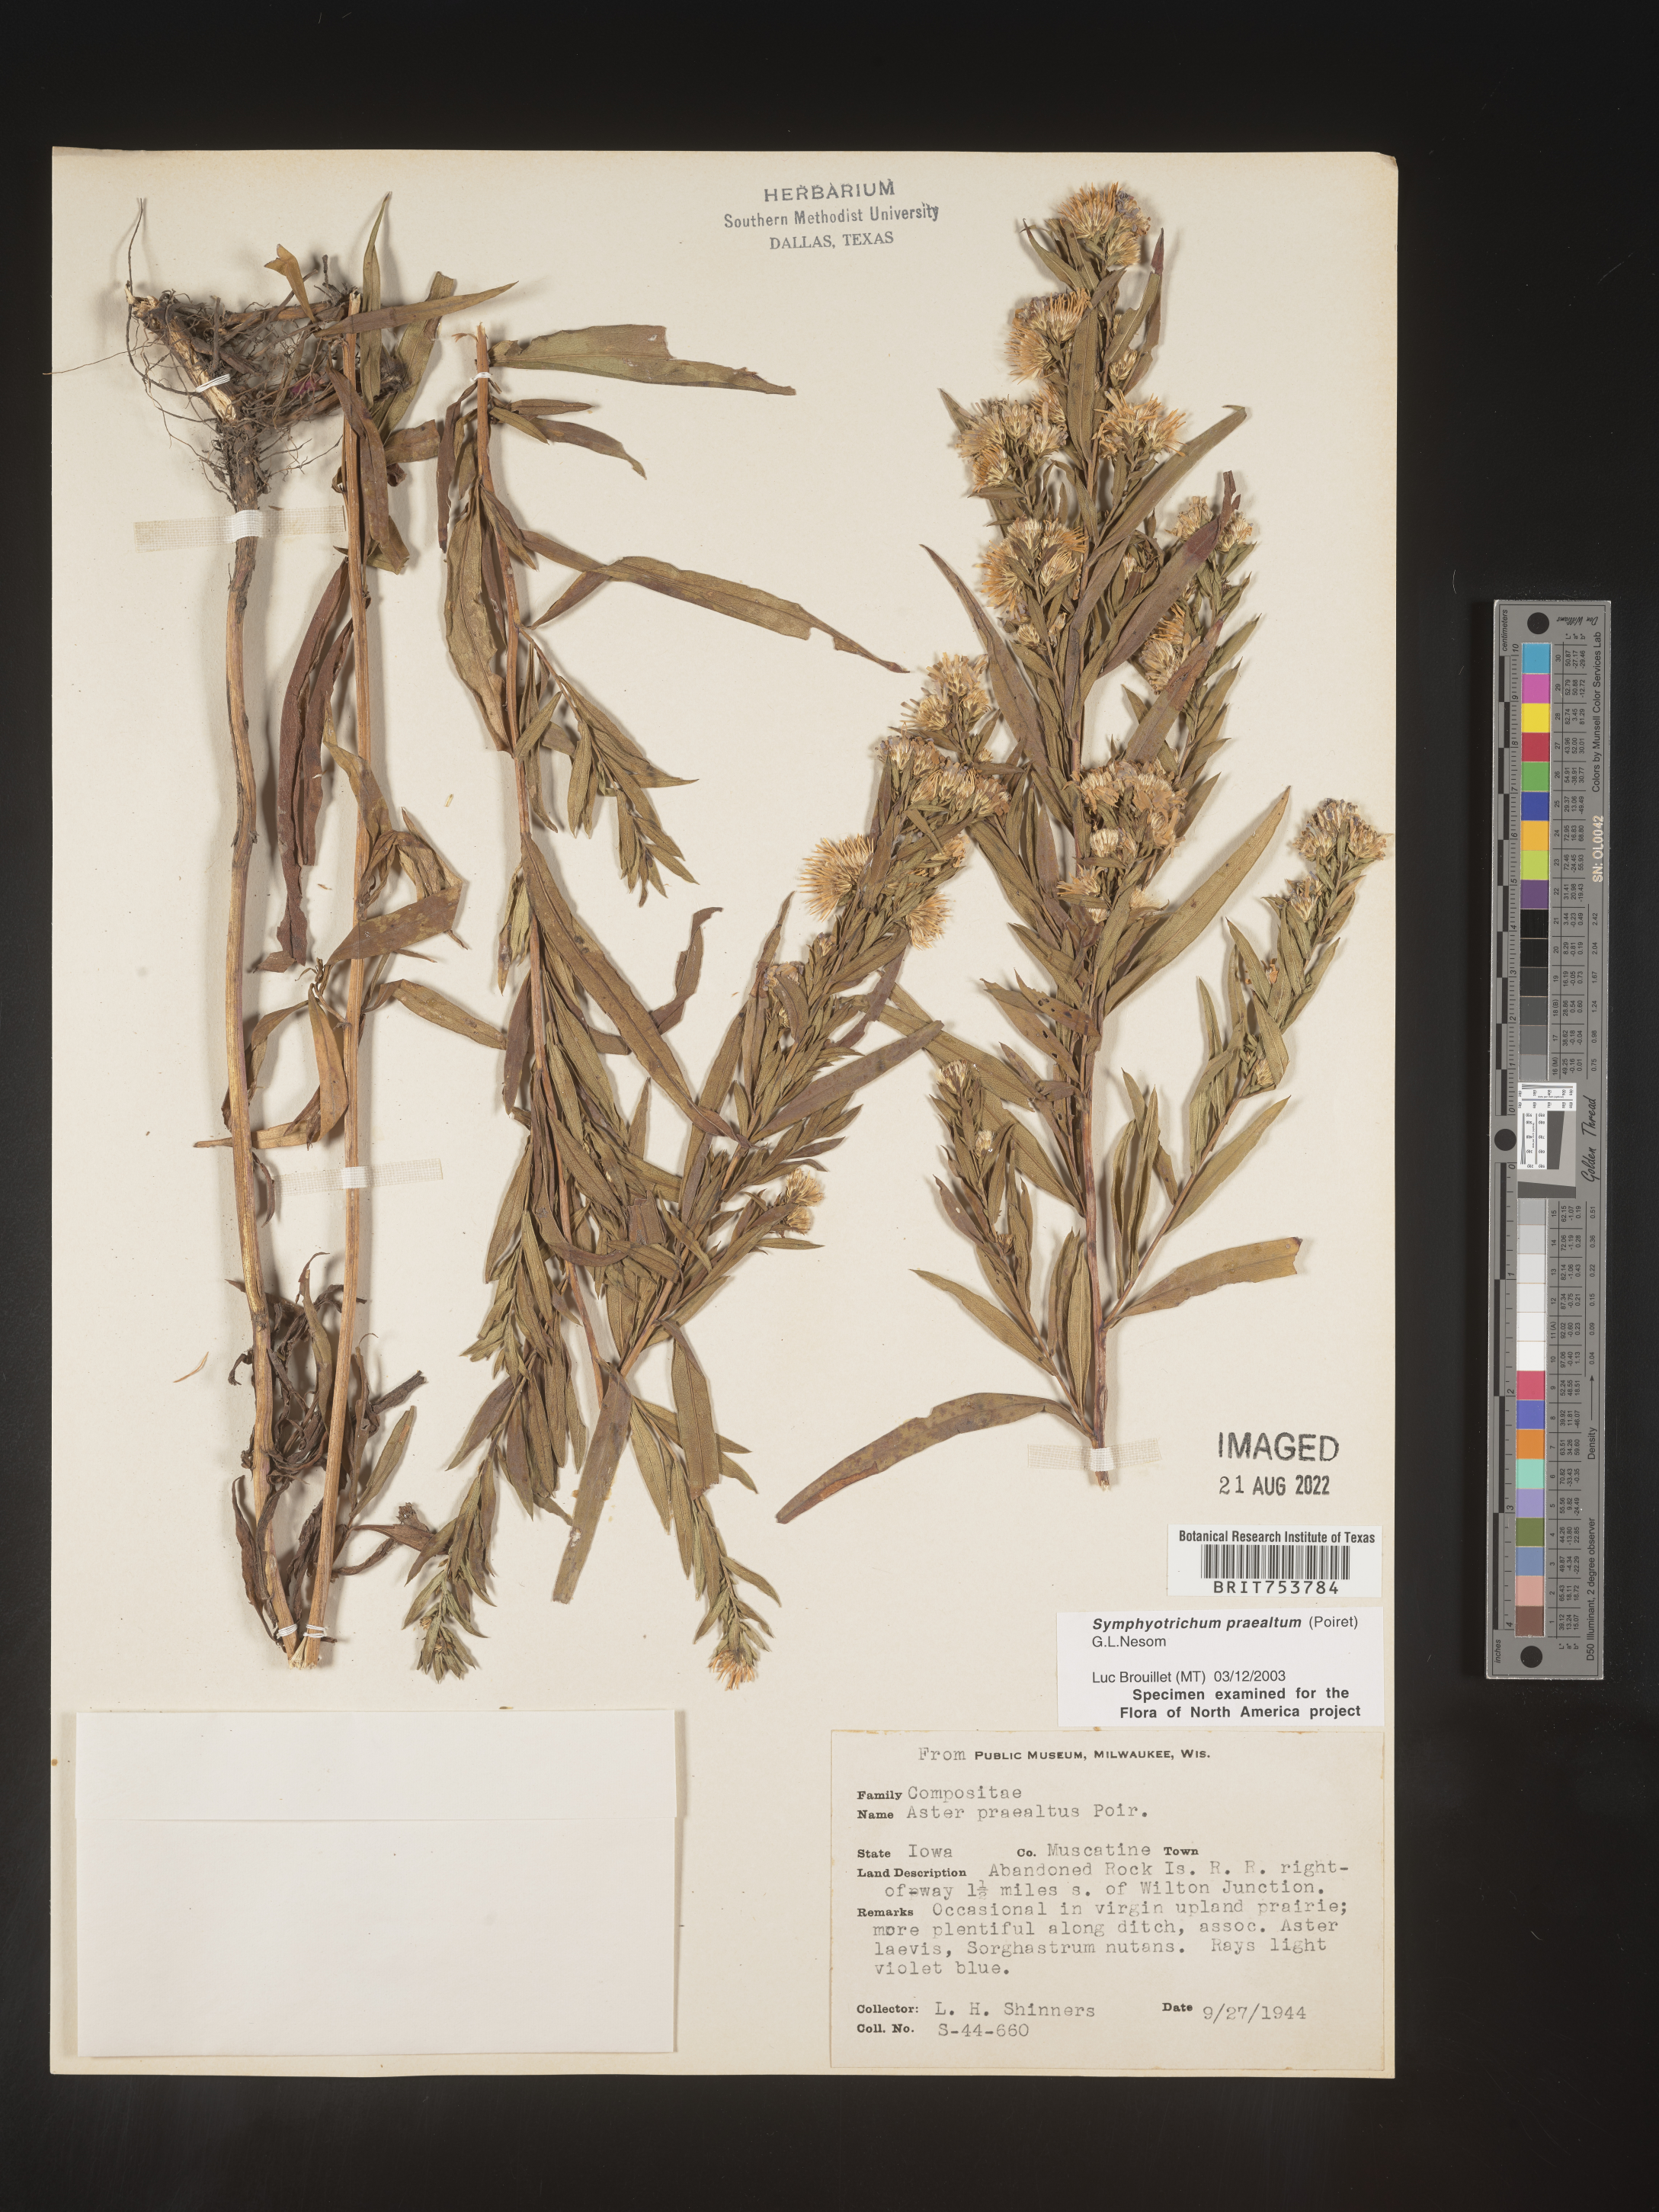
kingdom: Plantae
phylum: Tracheophyta
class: Magnoliopsida
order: Asterales
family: Asteraceae
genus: Symphyotrichum
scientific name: Symphyotrichum praealtum
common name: Willow aster
